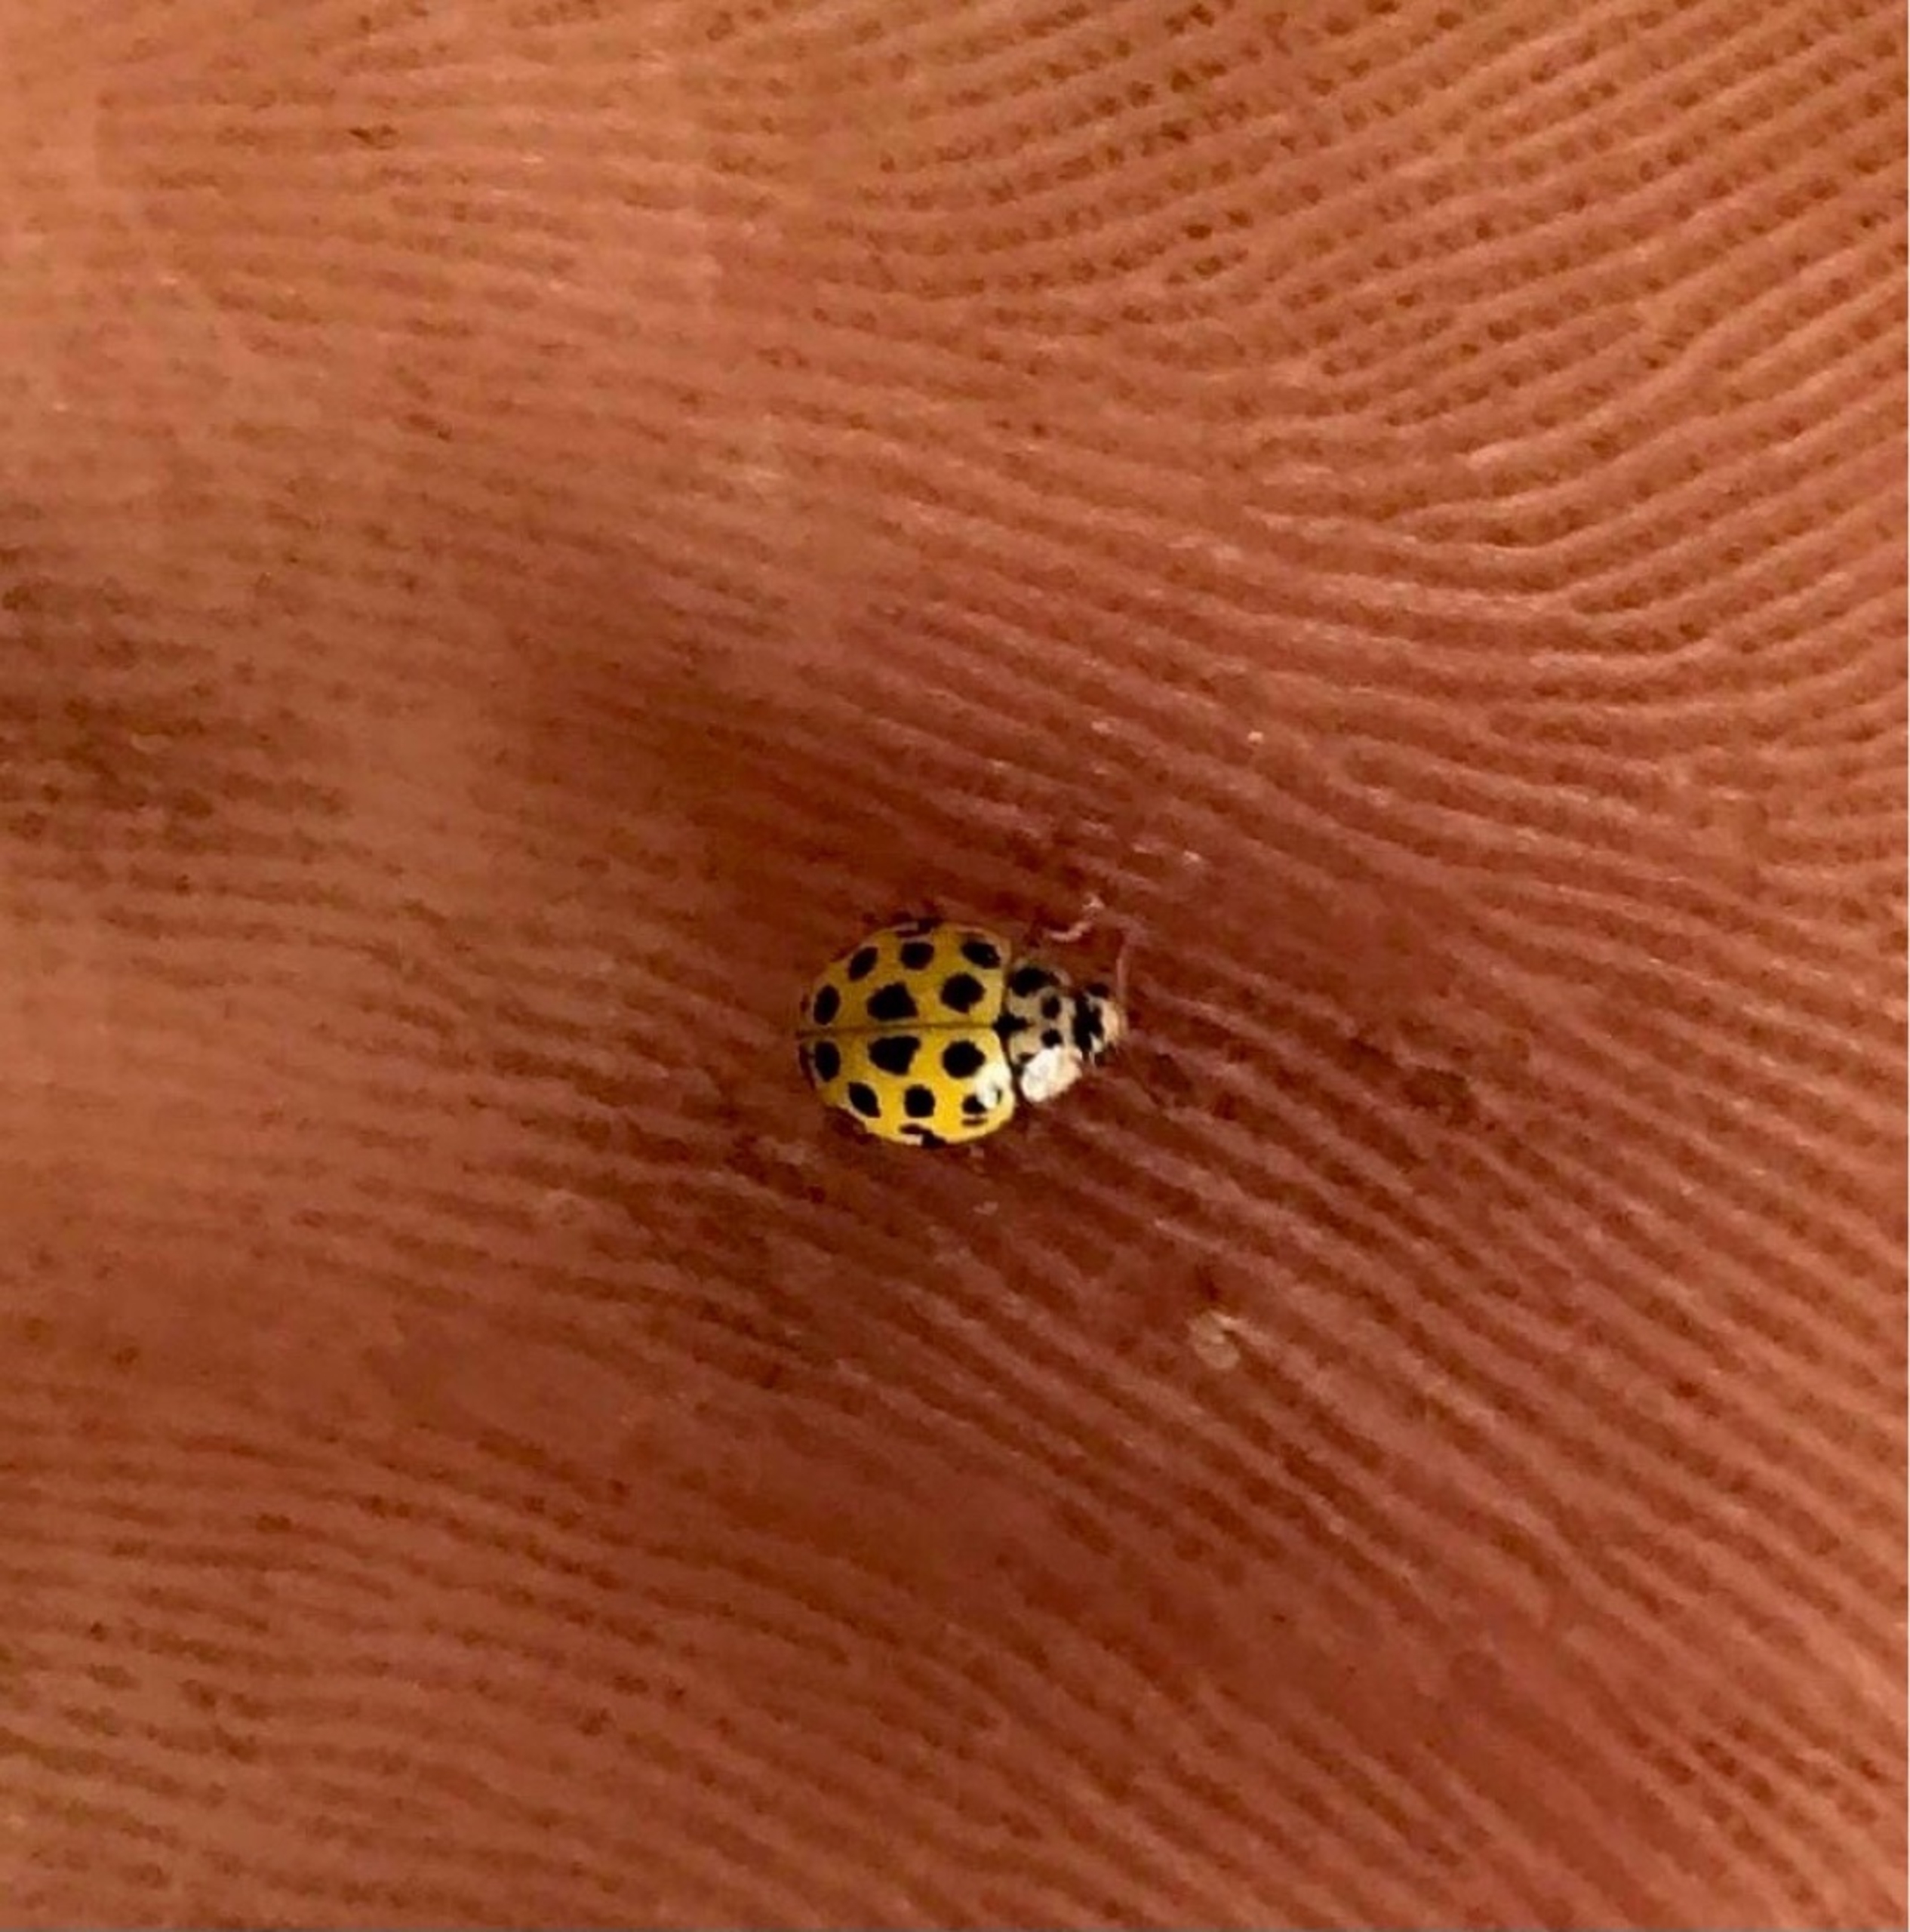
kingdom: Animalia
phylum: Arthropoda
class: Insecta
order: Coleoptera
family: Coccinellidae
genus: Psyllobora
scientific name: Psyllobora vigintiduopunctata
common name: Toogtyveplettet mariehøne
